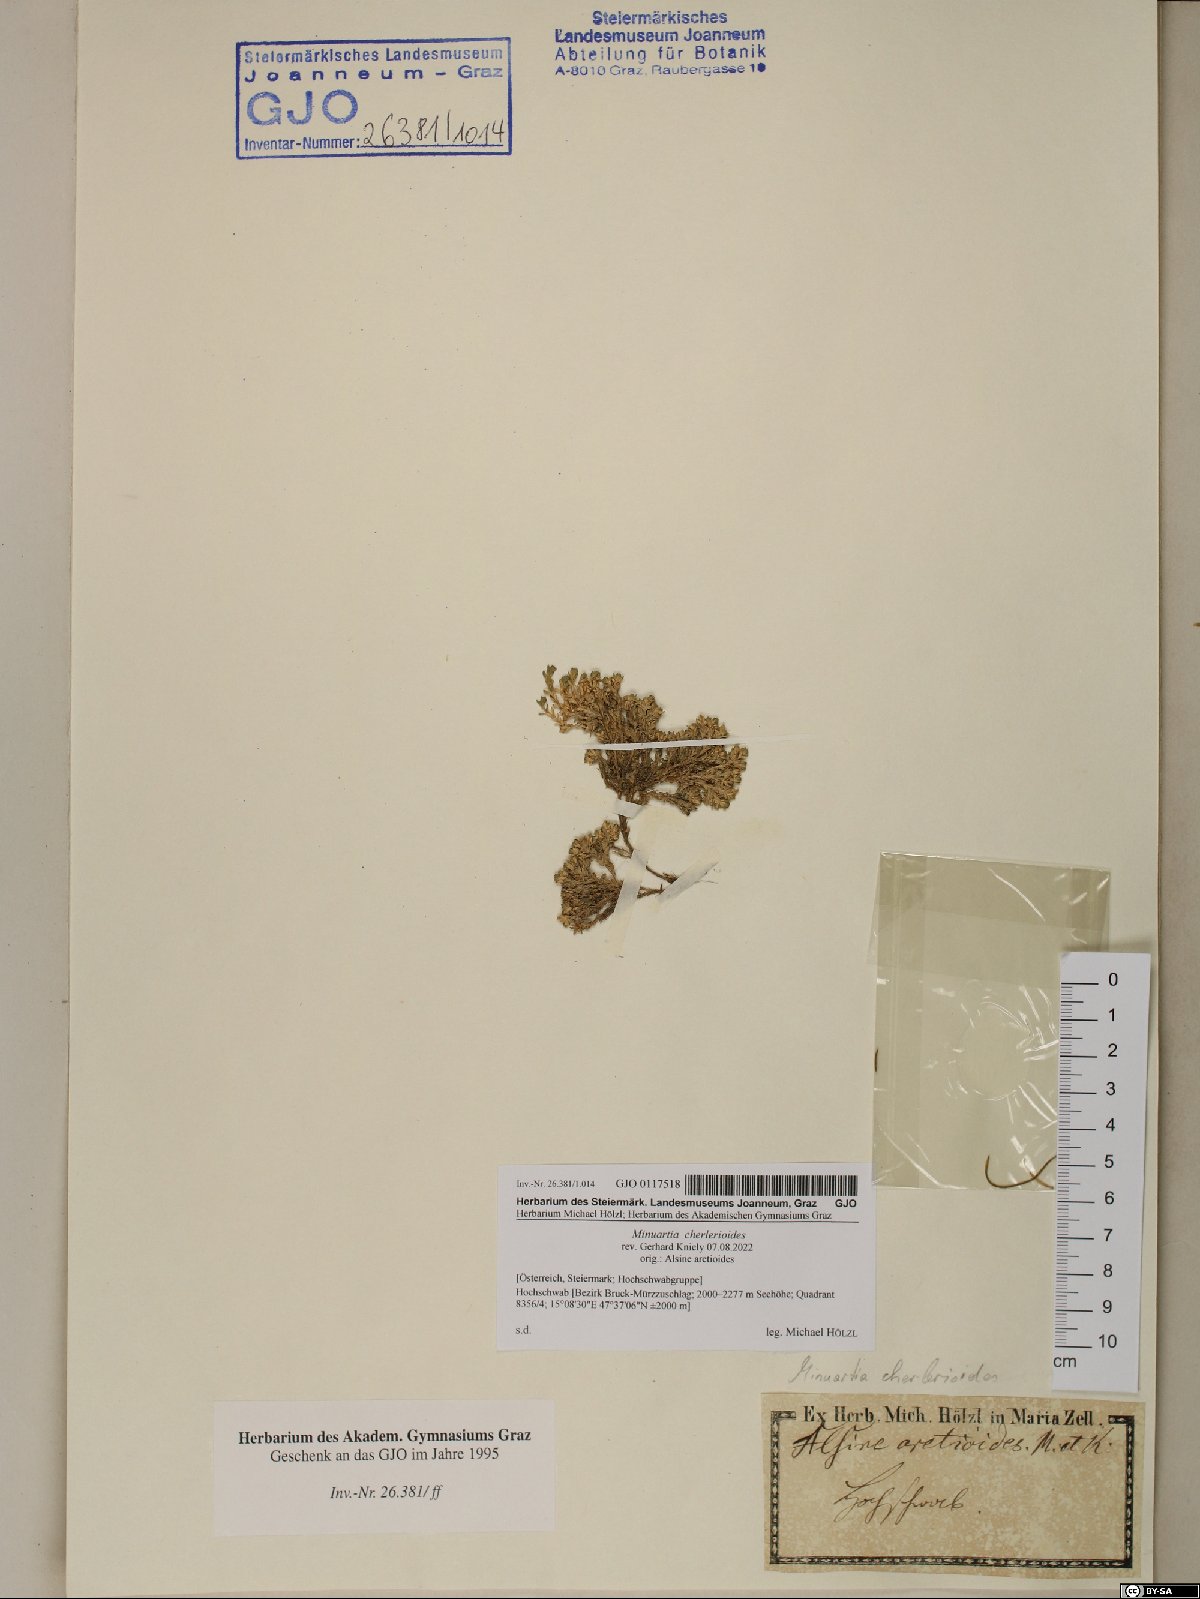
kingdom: Plantae
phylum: Tracheophyta
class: Magnoliopsida
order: Caryophyllales
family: Caryophyllaceae
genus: Facchinia
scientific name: Facchinia cherlerioides
